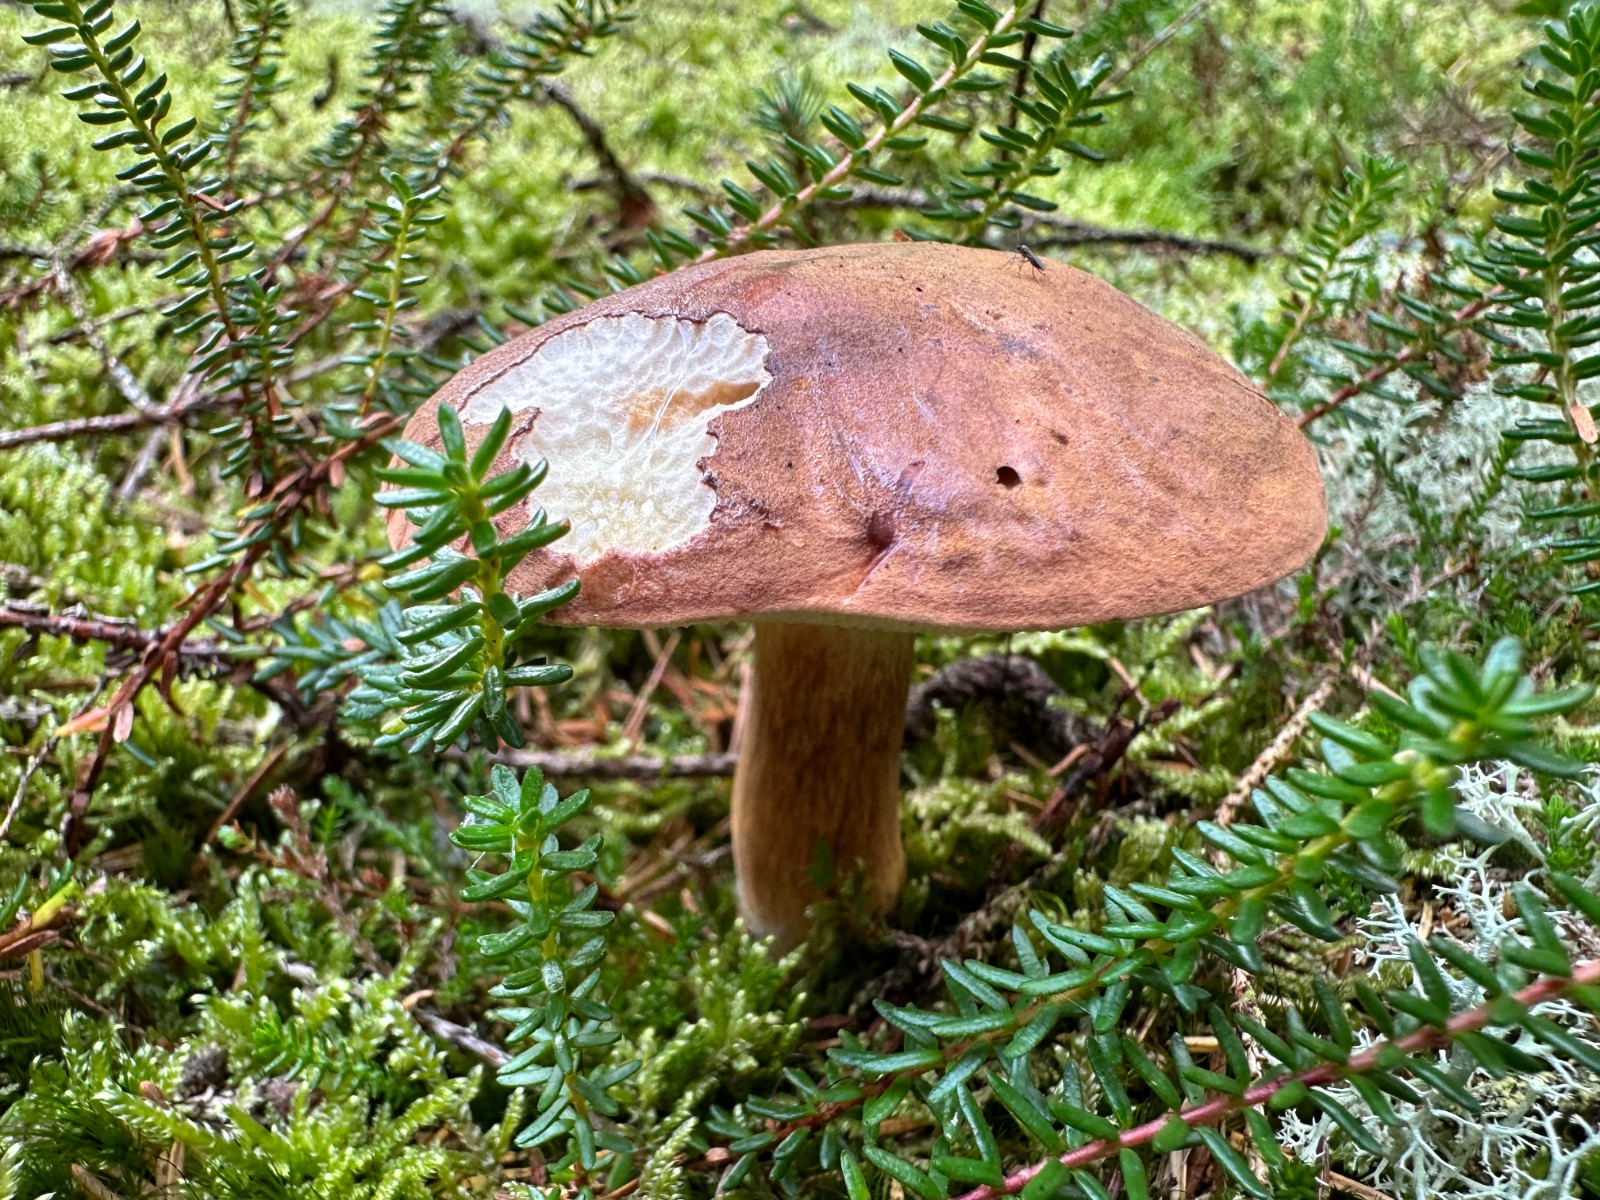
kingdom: Fungi
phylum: Basidiomycota
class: Agaricomycetes
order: Boletales
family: Boletaceae
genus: Imleria
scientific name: Imleria badia
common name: brunstokket rørhat
